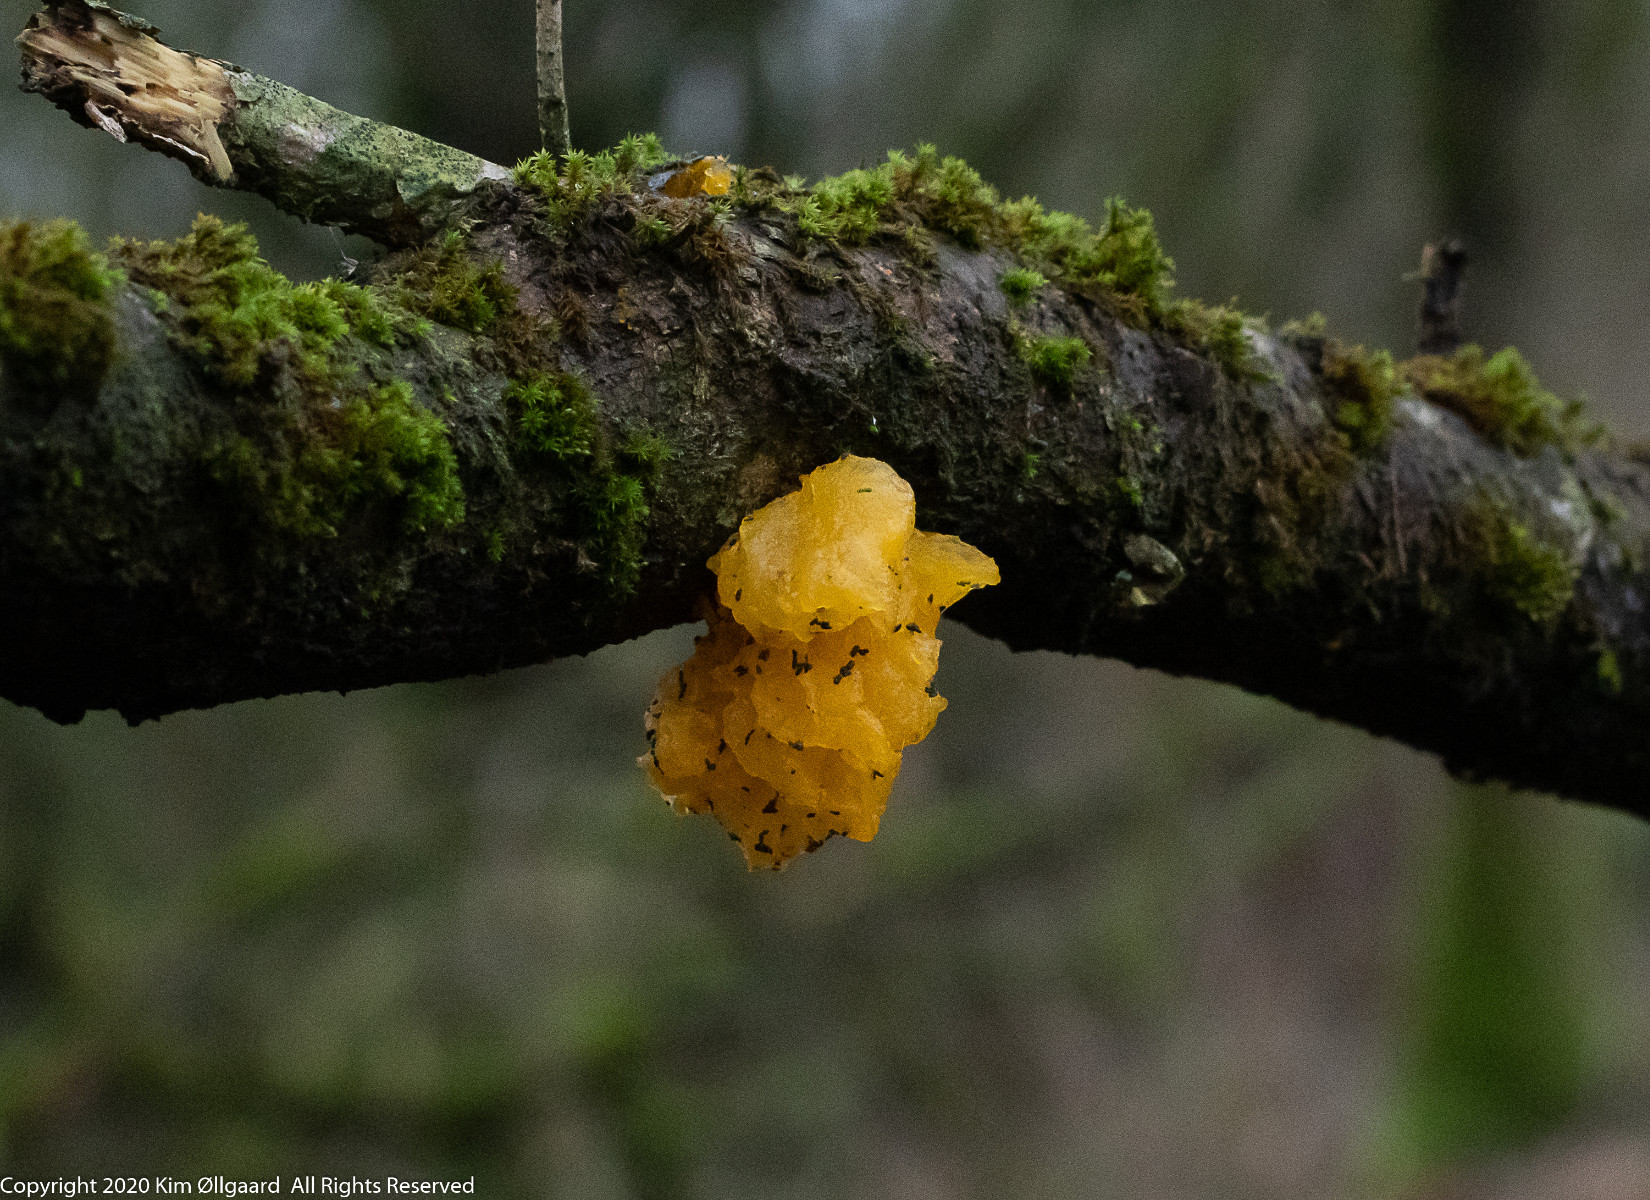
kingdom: Fungi
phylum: Basidiomycota
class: Tremellomycetes
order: Tremellales
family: Tremellaceae
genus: Tremella
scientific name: Tremella mesenterica
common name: gul bævresvamp
